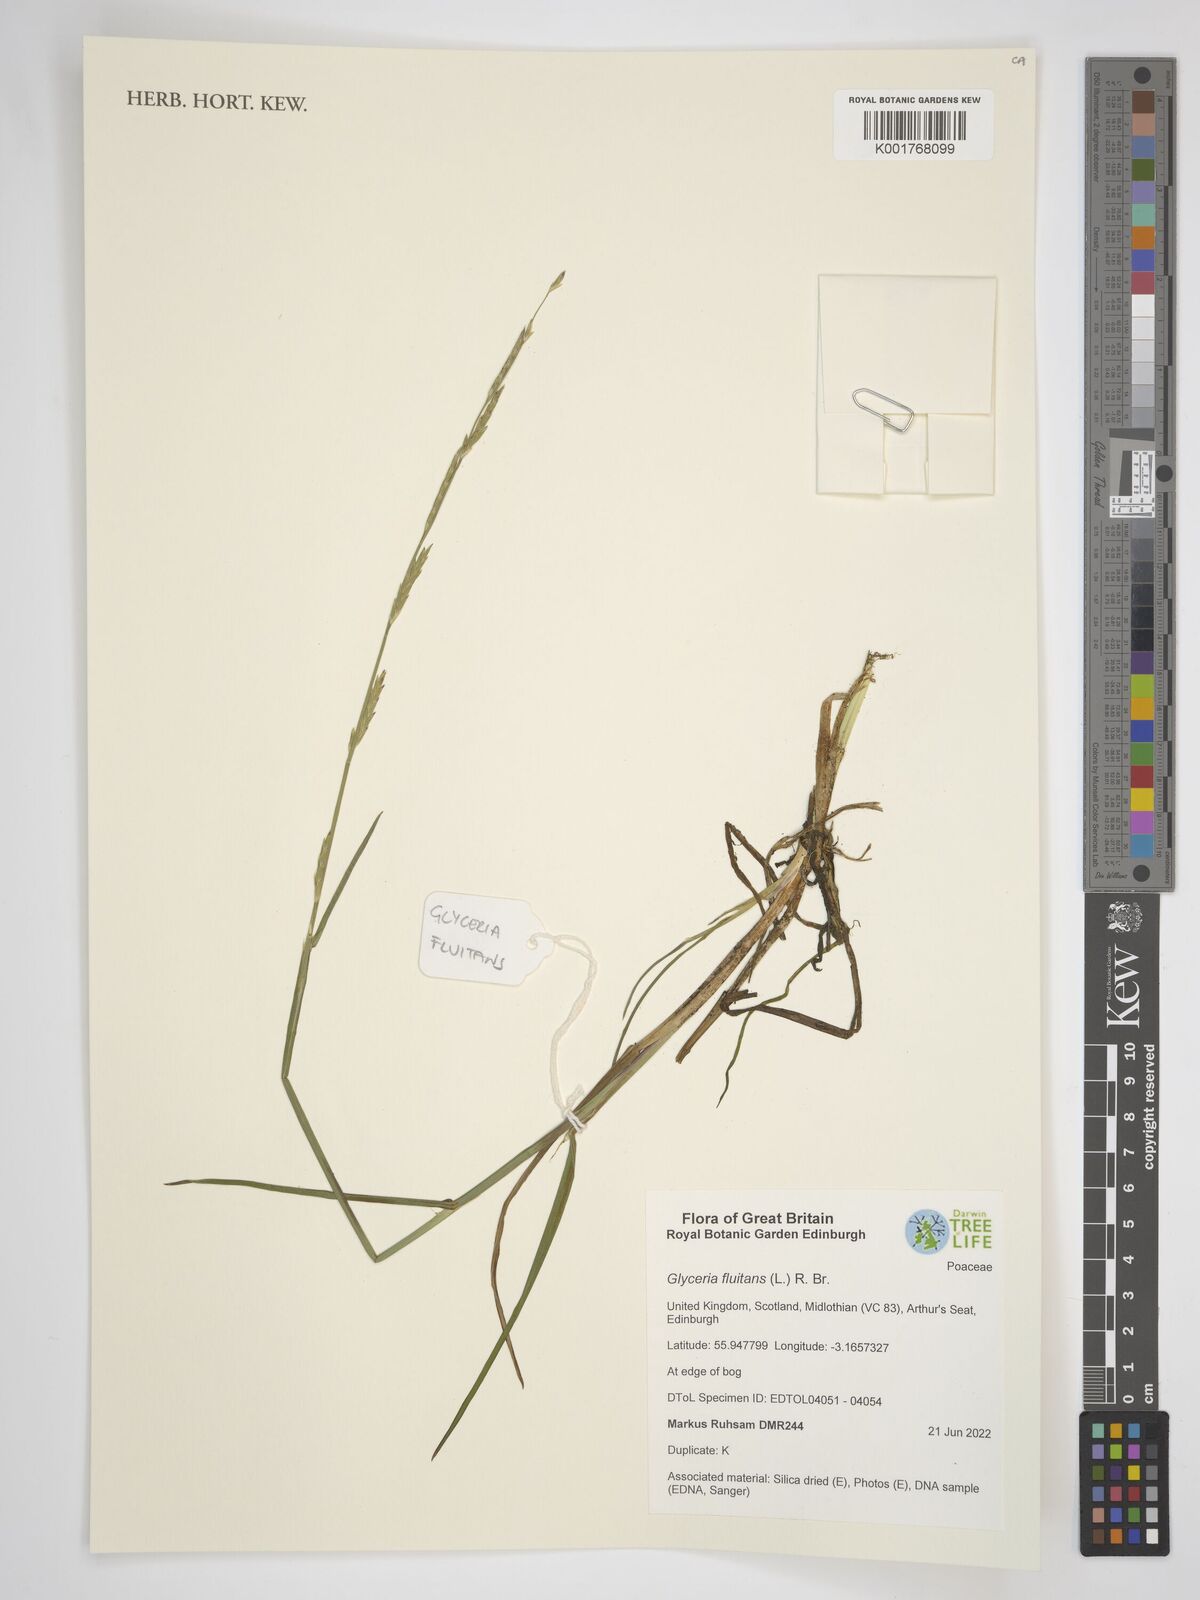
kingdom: Plantae
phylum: Tracheophyta
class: Liliopsida
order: Poales
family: Poaceae
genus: Glyceria
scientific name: Glyceria fluitans
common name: Floating sweet-grass
